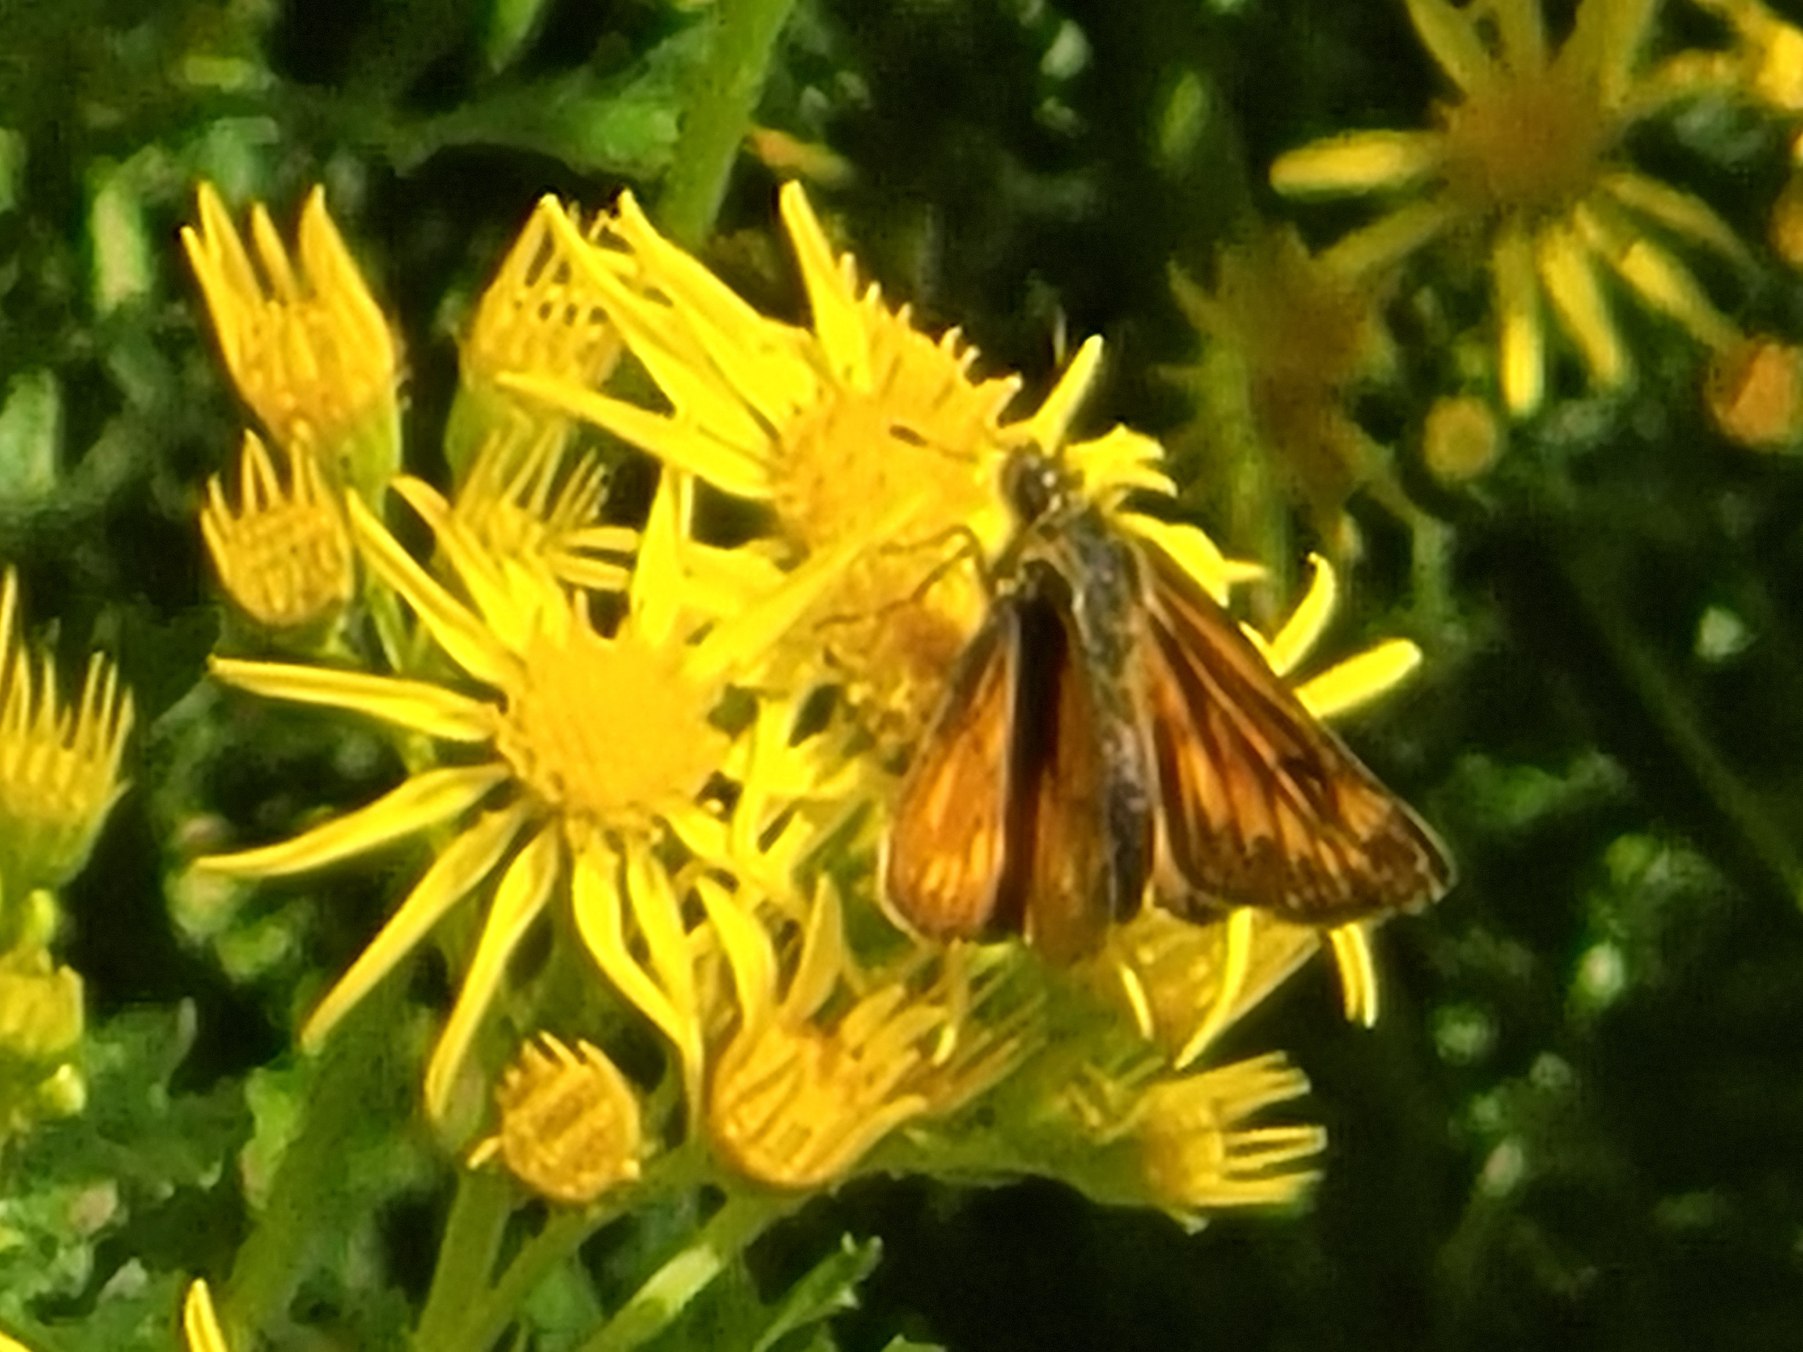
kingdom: Animalia
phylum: Arthropoda
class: Insecta
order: Lepidoptera
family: Hesperiidae
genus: Ochlodes
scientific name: Ochlodes venata
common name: Stor bredpande
